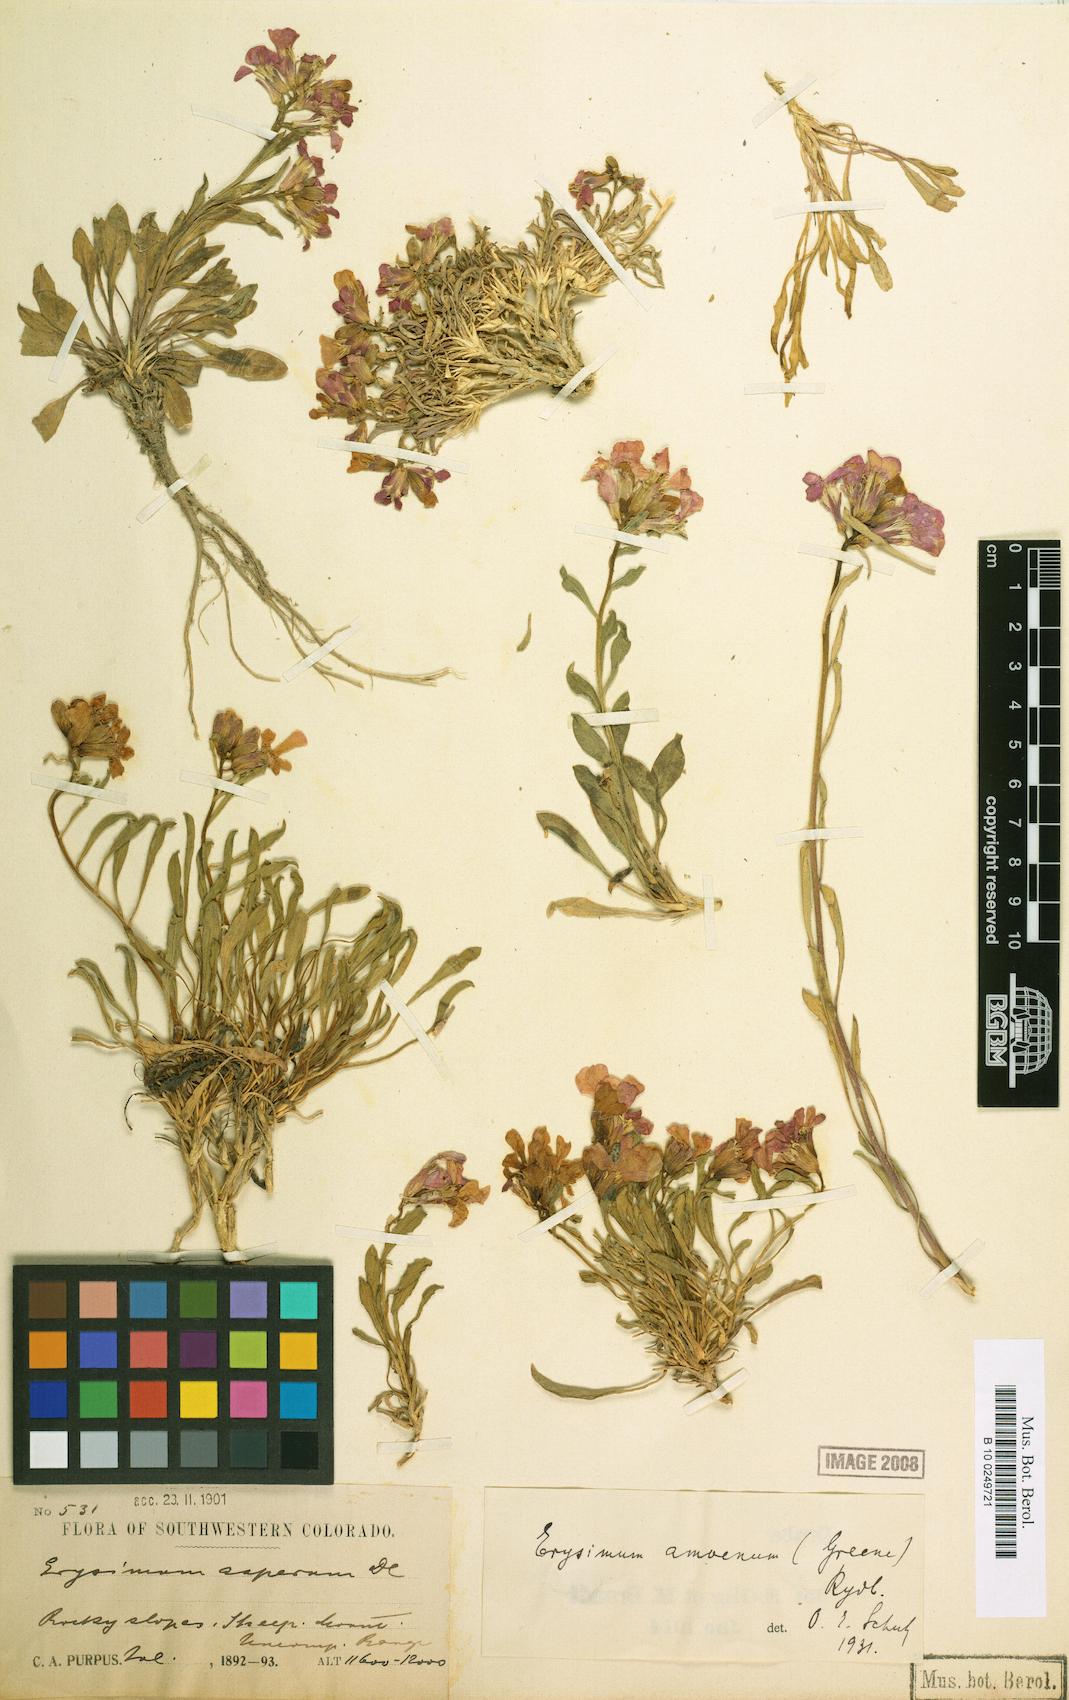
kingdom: Plantae
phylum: Tracheophyta
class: Magnoliopsida
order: Brassicales
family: Brassicaceae
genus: Erysimum
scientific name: Erysimum capitatum
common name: Western wallflower
